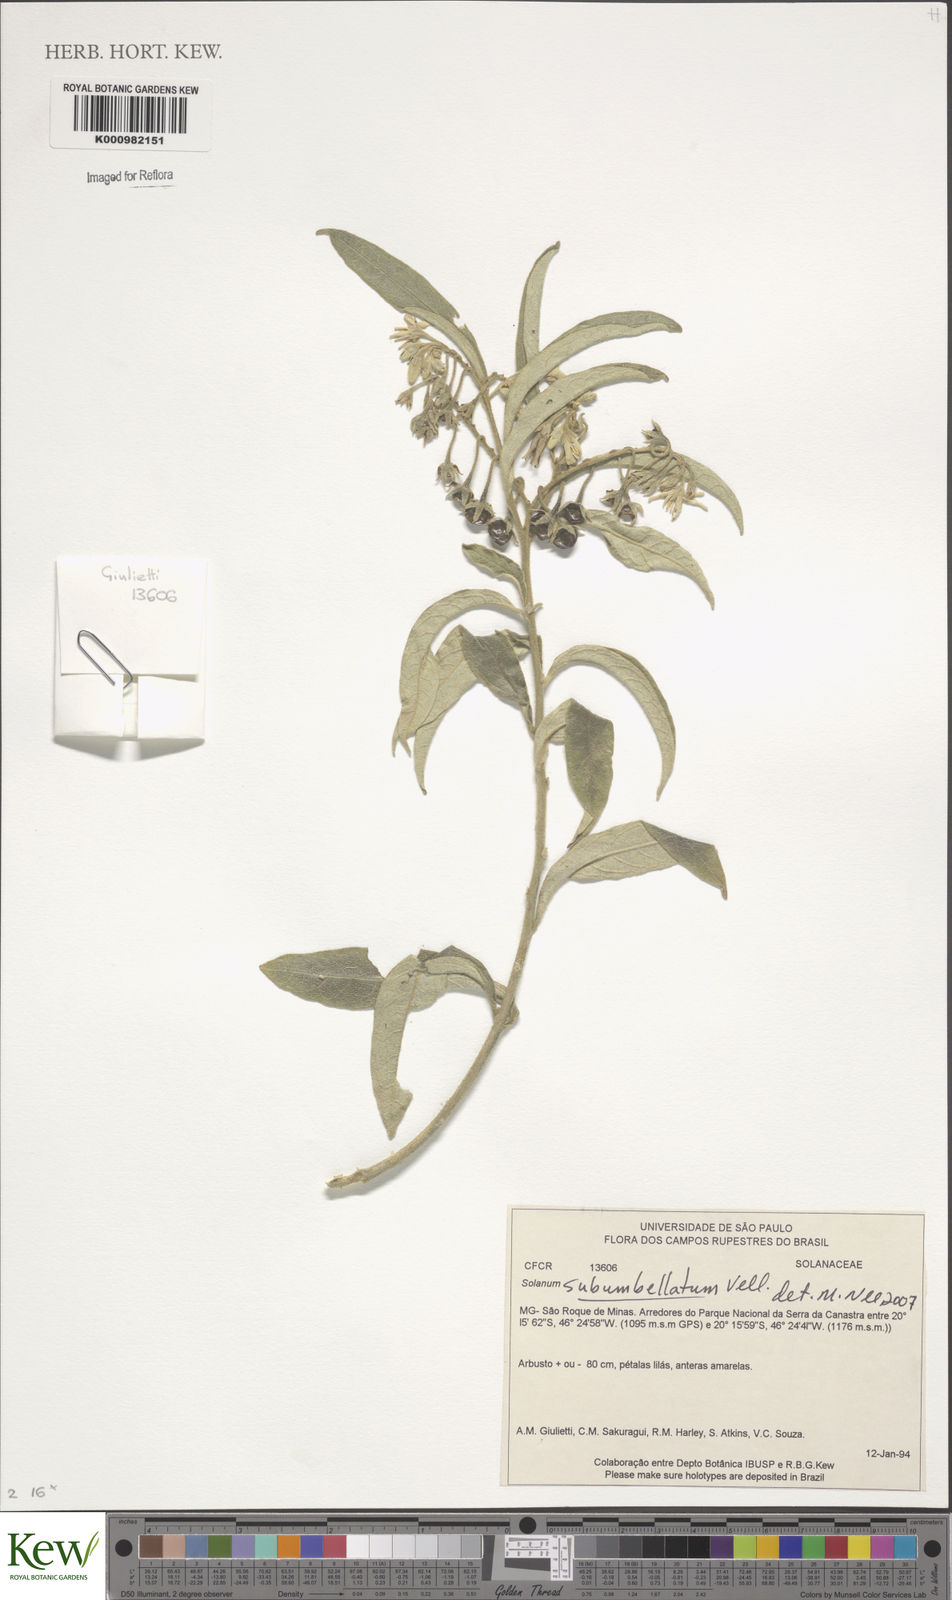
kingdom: Plantae
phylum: Tracheophyta
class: Magnoliopsida
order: Solanales
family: Solanaceae
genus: Solanum
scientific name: Solanum subumbellatum
